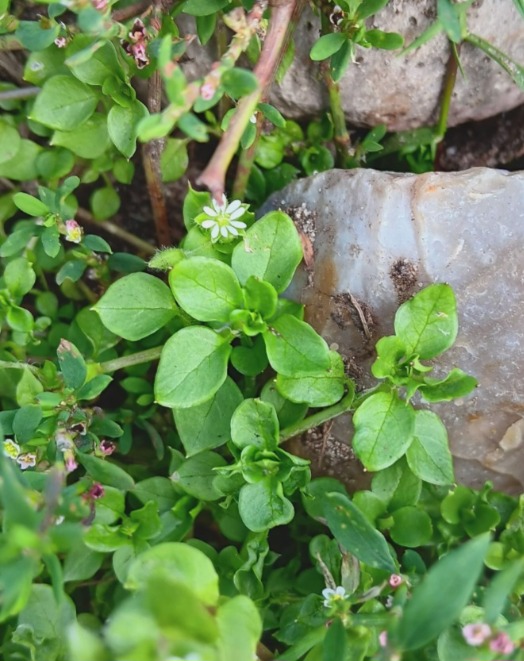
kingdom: Plantae
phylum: Tracheophyta
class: Magnoliopsida
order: Caryophyllales
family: Caryophyllaceae
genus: Stellaria
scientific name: Stellaria media
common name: Almindelig fuglegræs
